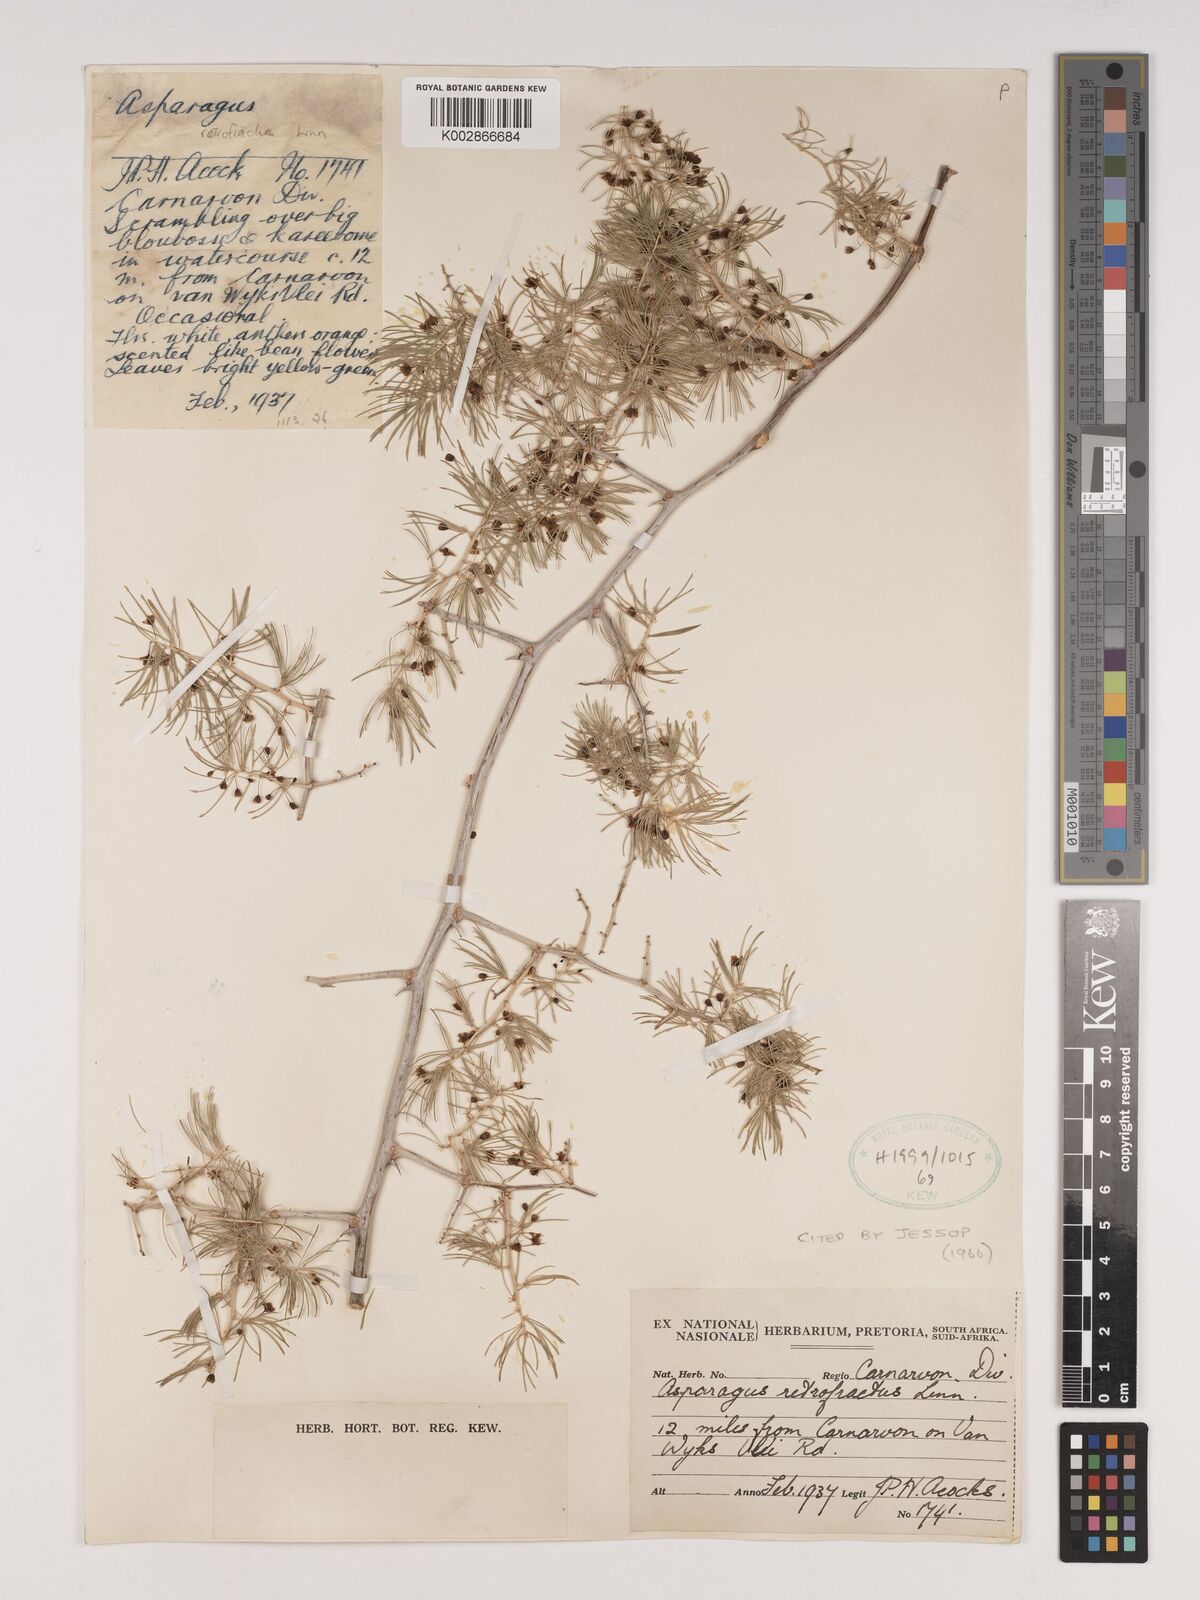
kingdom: Plantae
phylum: Tracheophyta
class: Liliopsida
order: Asparagales
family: Asparagaceae
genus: Asparagus
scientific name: Asparagus retrofractus
